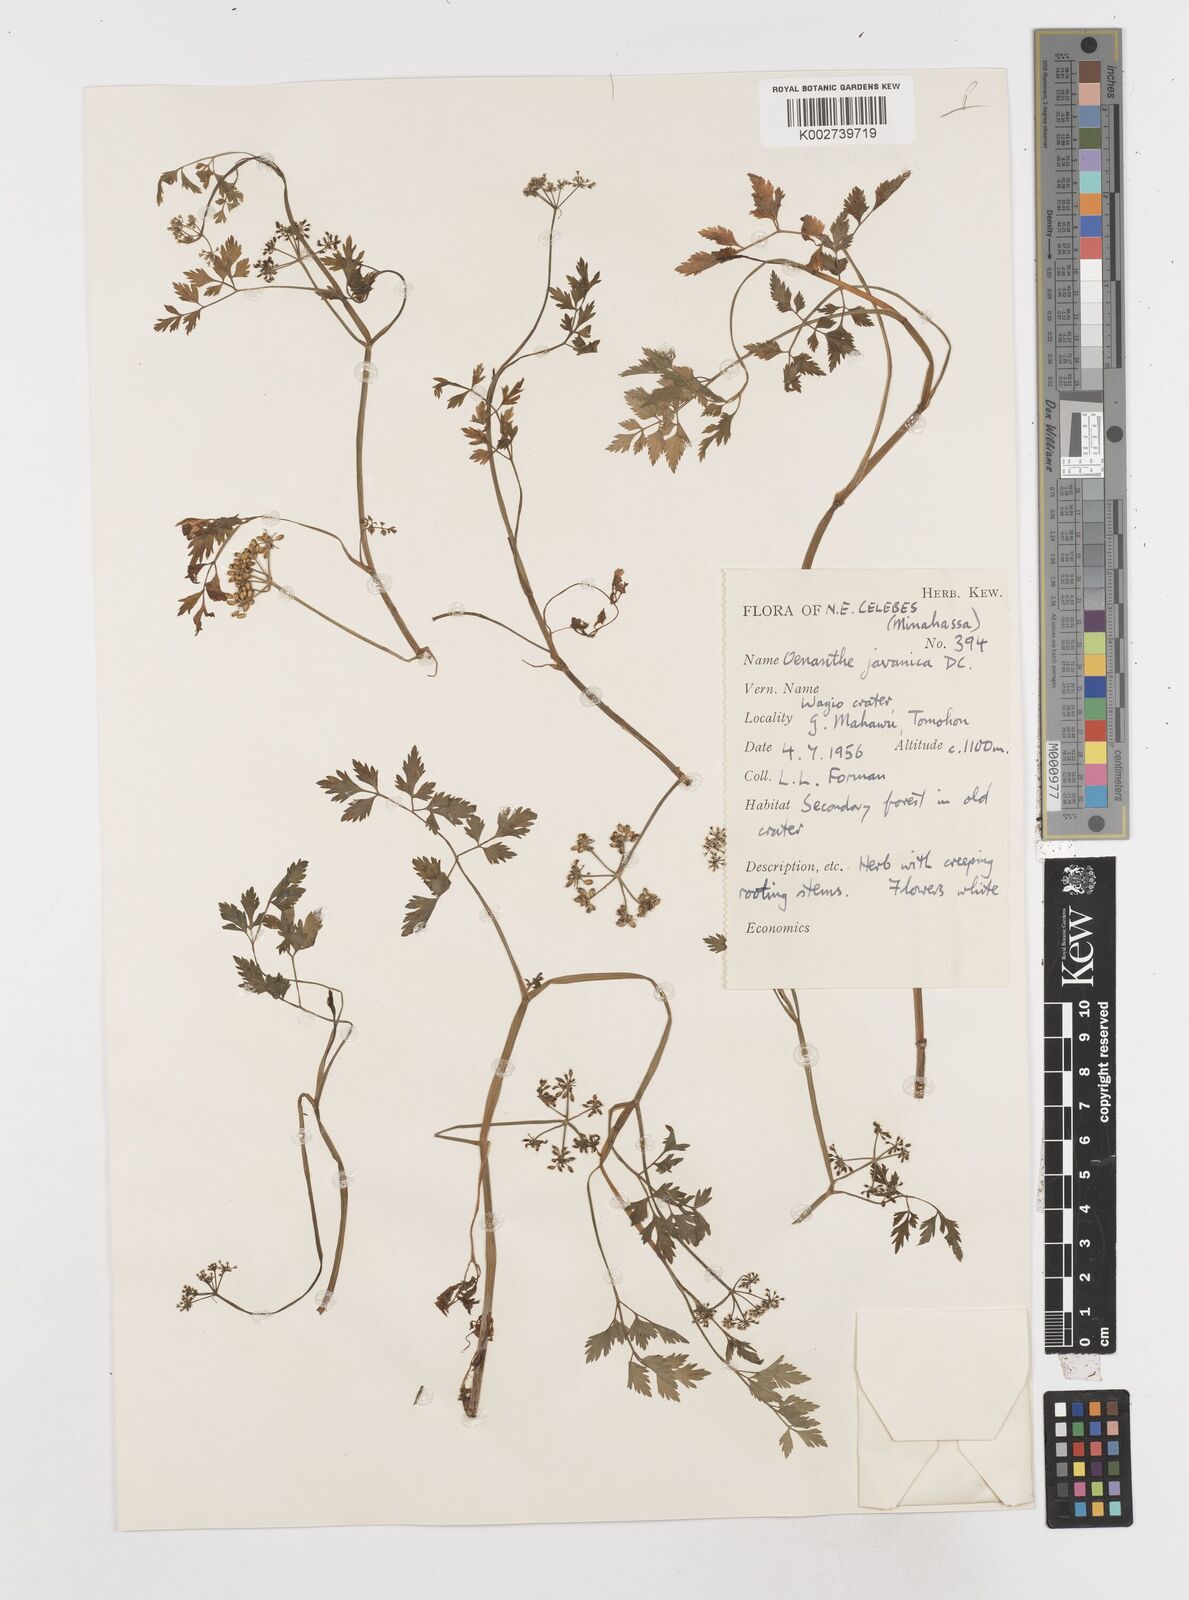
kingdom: Plantae
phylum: Tracheophyta
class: Magnoliopsida
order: Apiales
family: Apiaceae
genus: Oenanthe
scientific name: Oenanthe javanica
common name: Java water-dropwort
